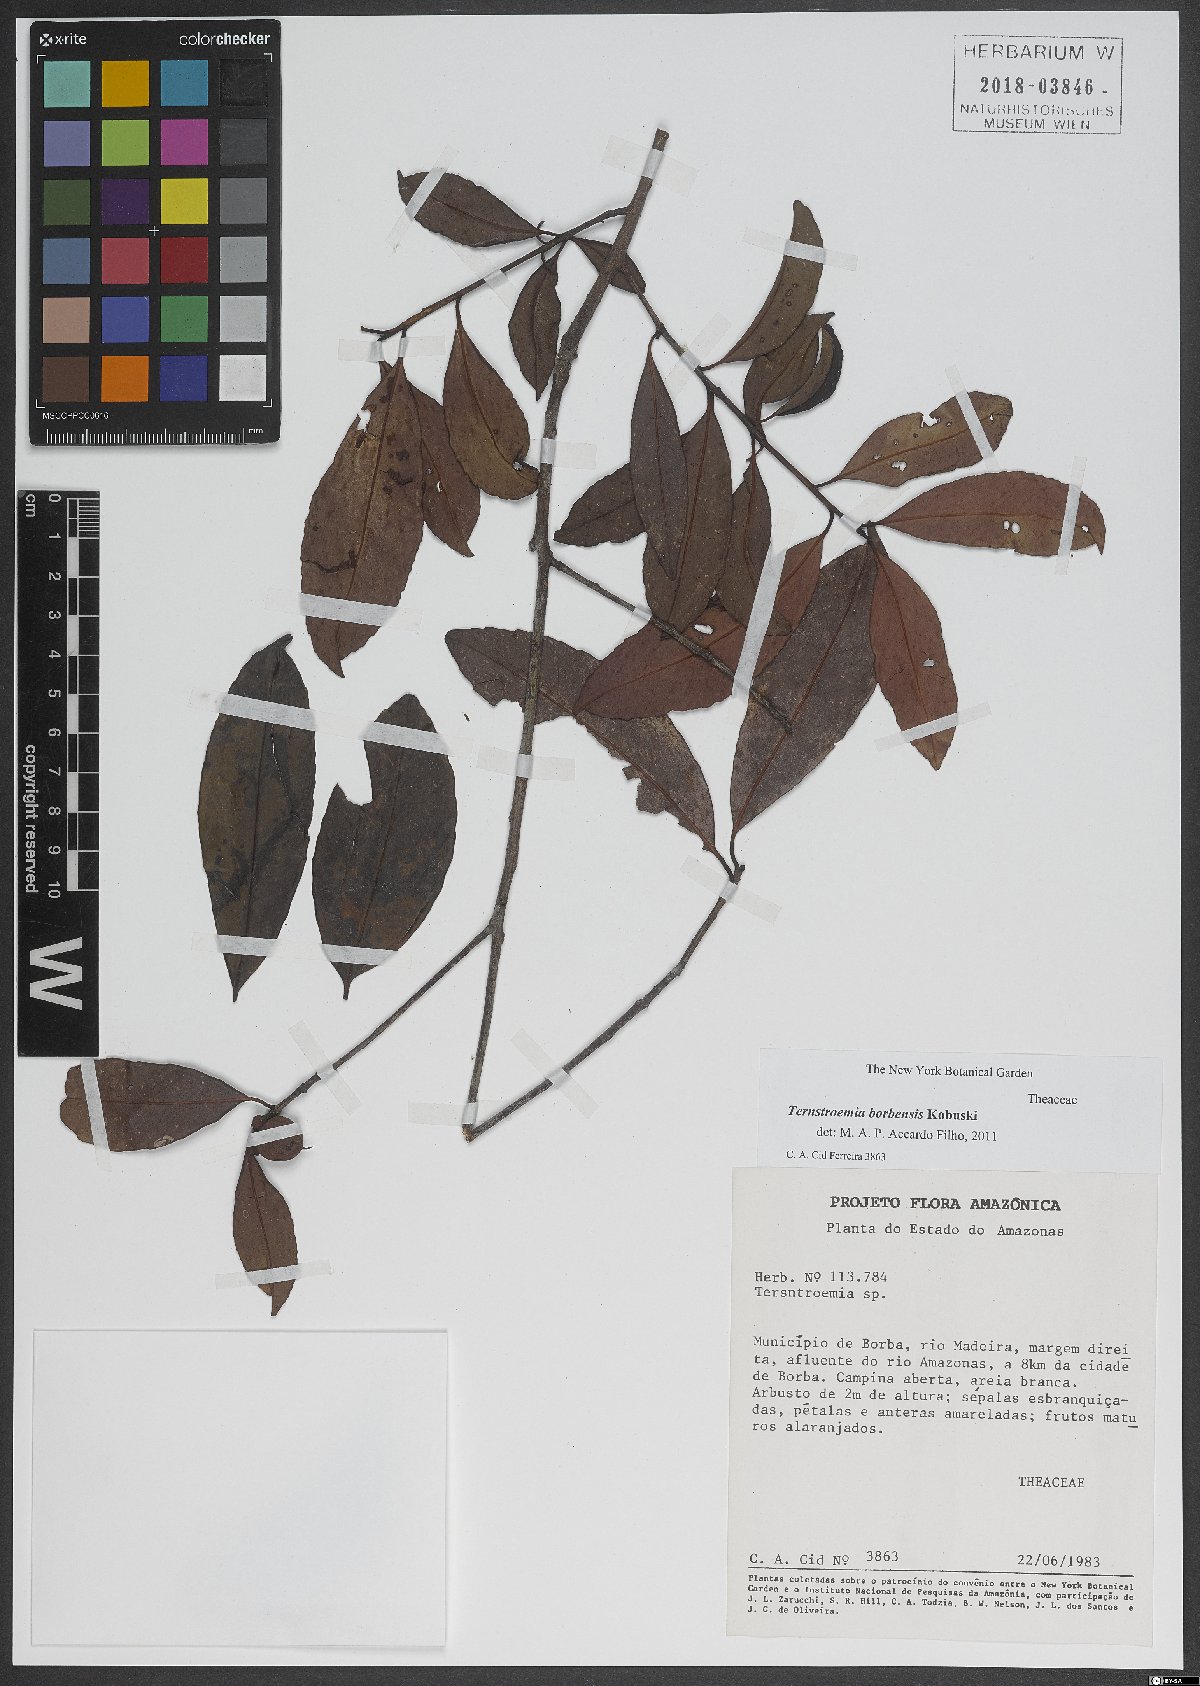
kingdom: Plantae
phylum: Tracheophyta
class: Magnoliopsida
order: Ericales
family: Pentaphylacaceae
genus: Ternstroemia
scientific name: Ternstroemia dentata
